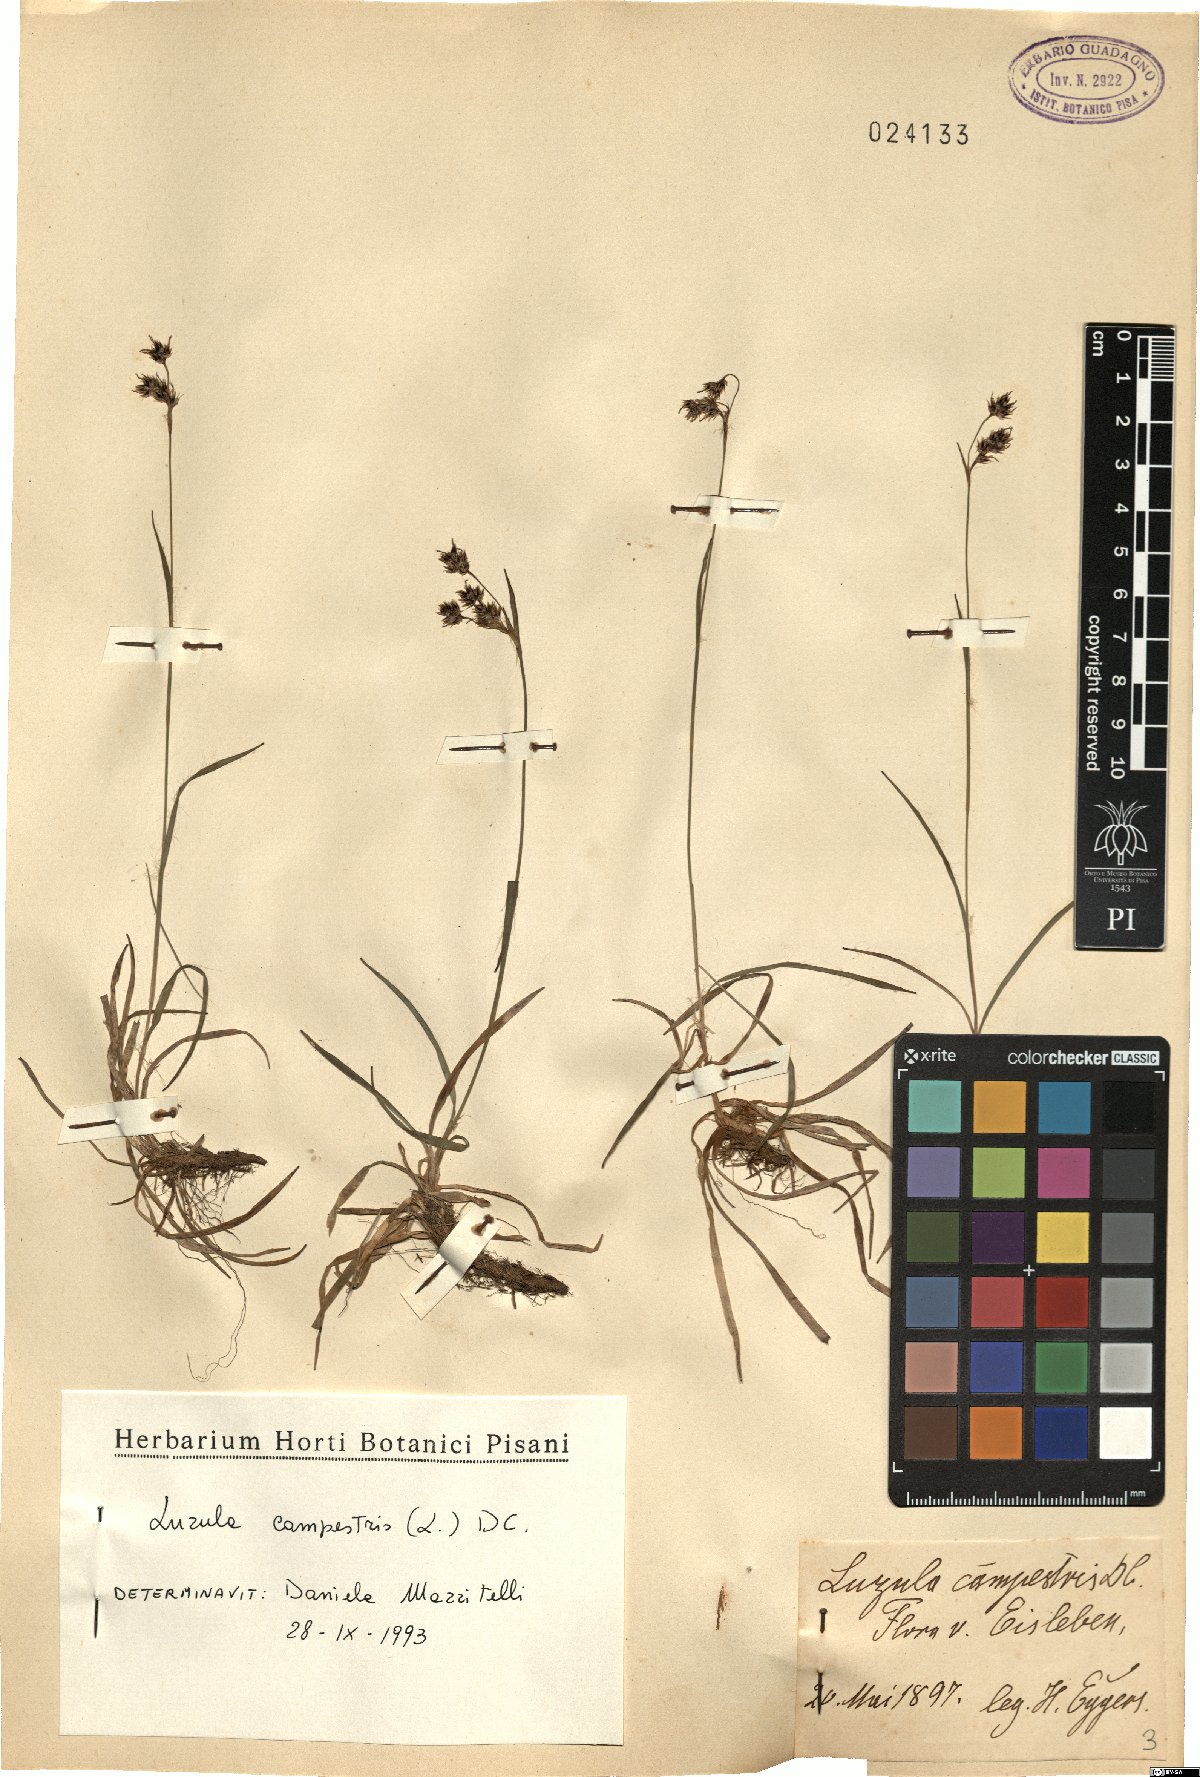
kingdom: Plantae
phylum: Tracheophyta
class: Liliopsida
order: Poales
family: Juncaceae
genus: Luzula
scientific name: Luzula campestris
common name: Field wood-rush
